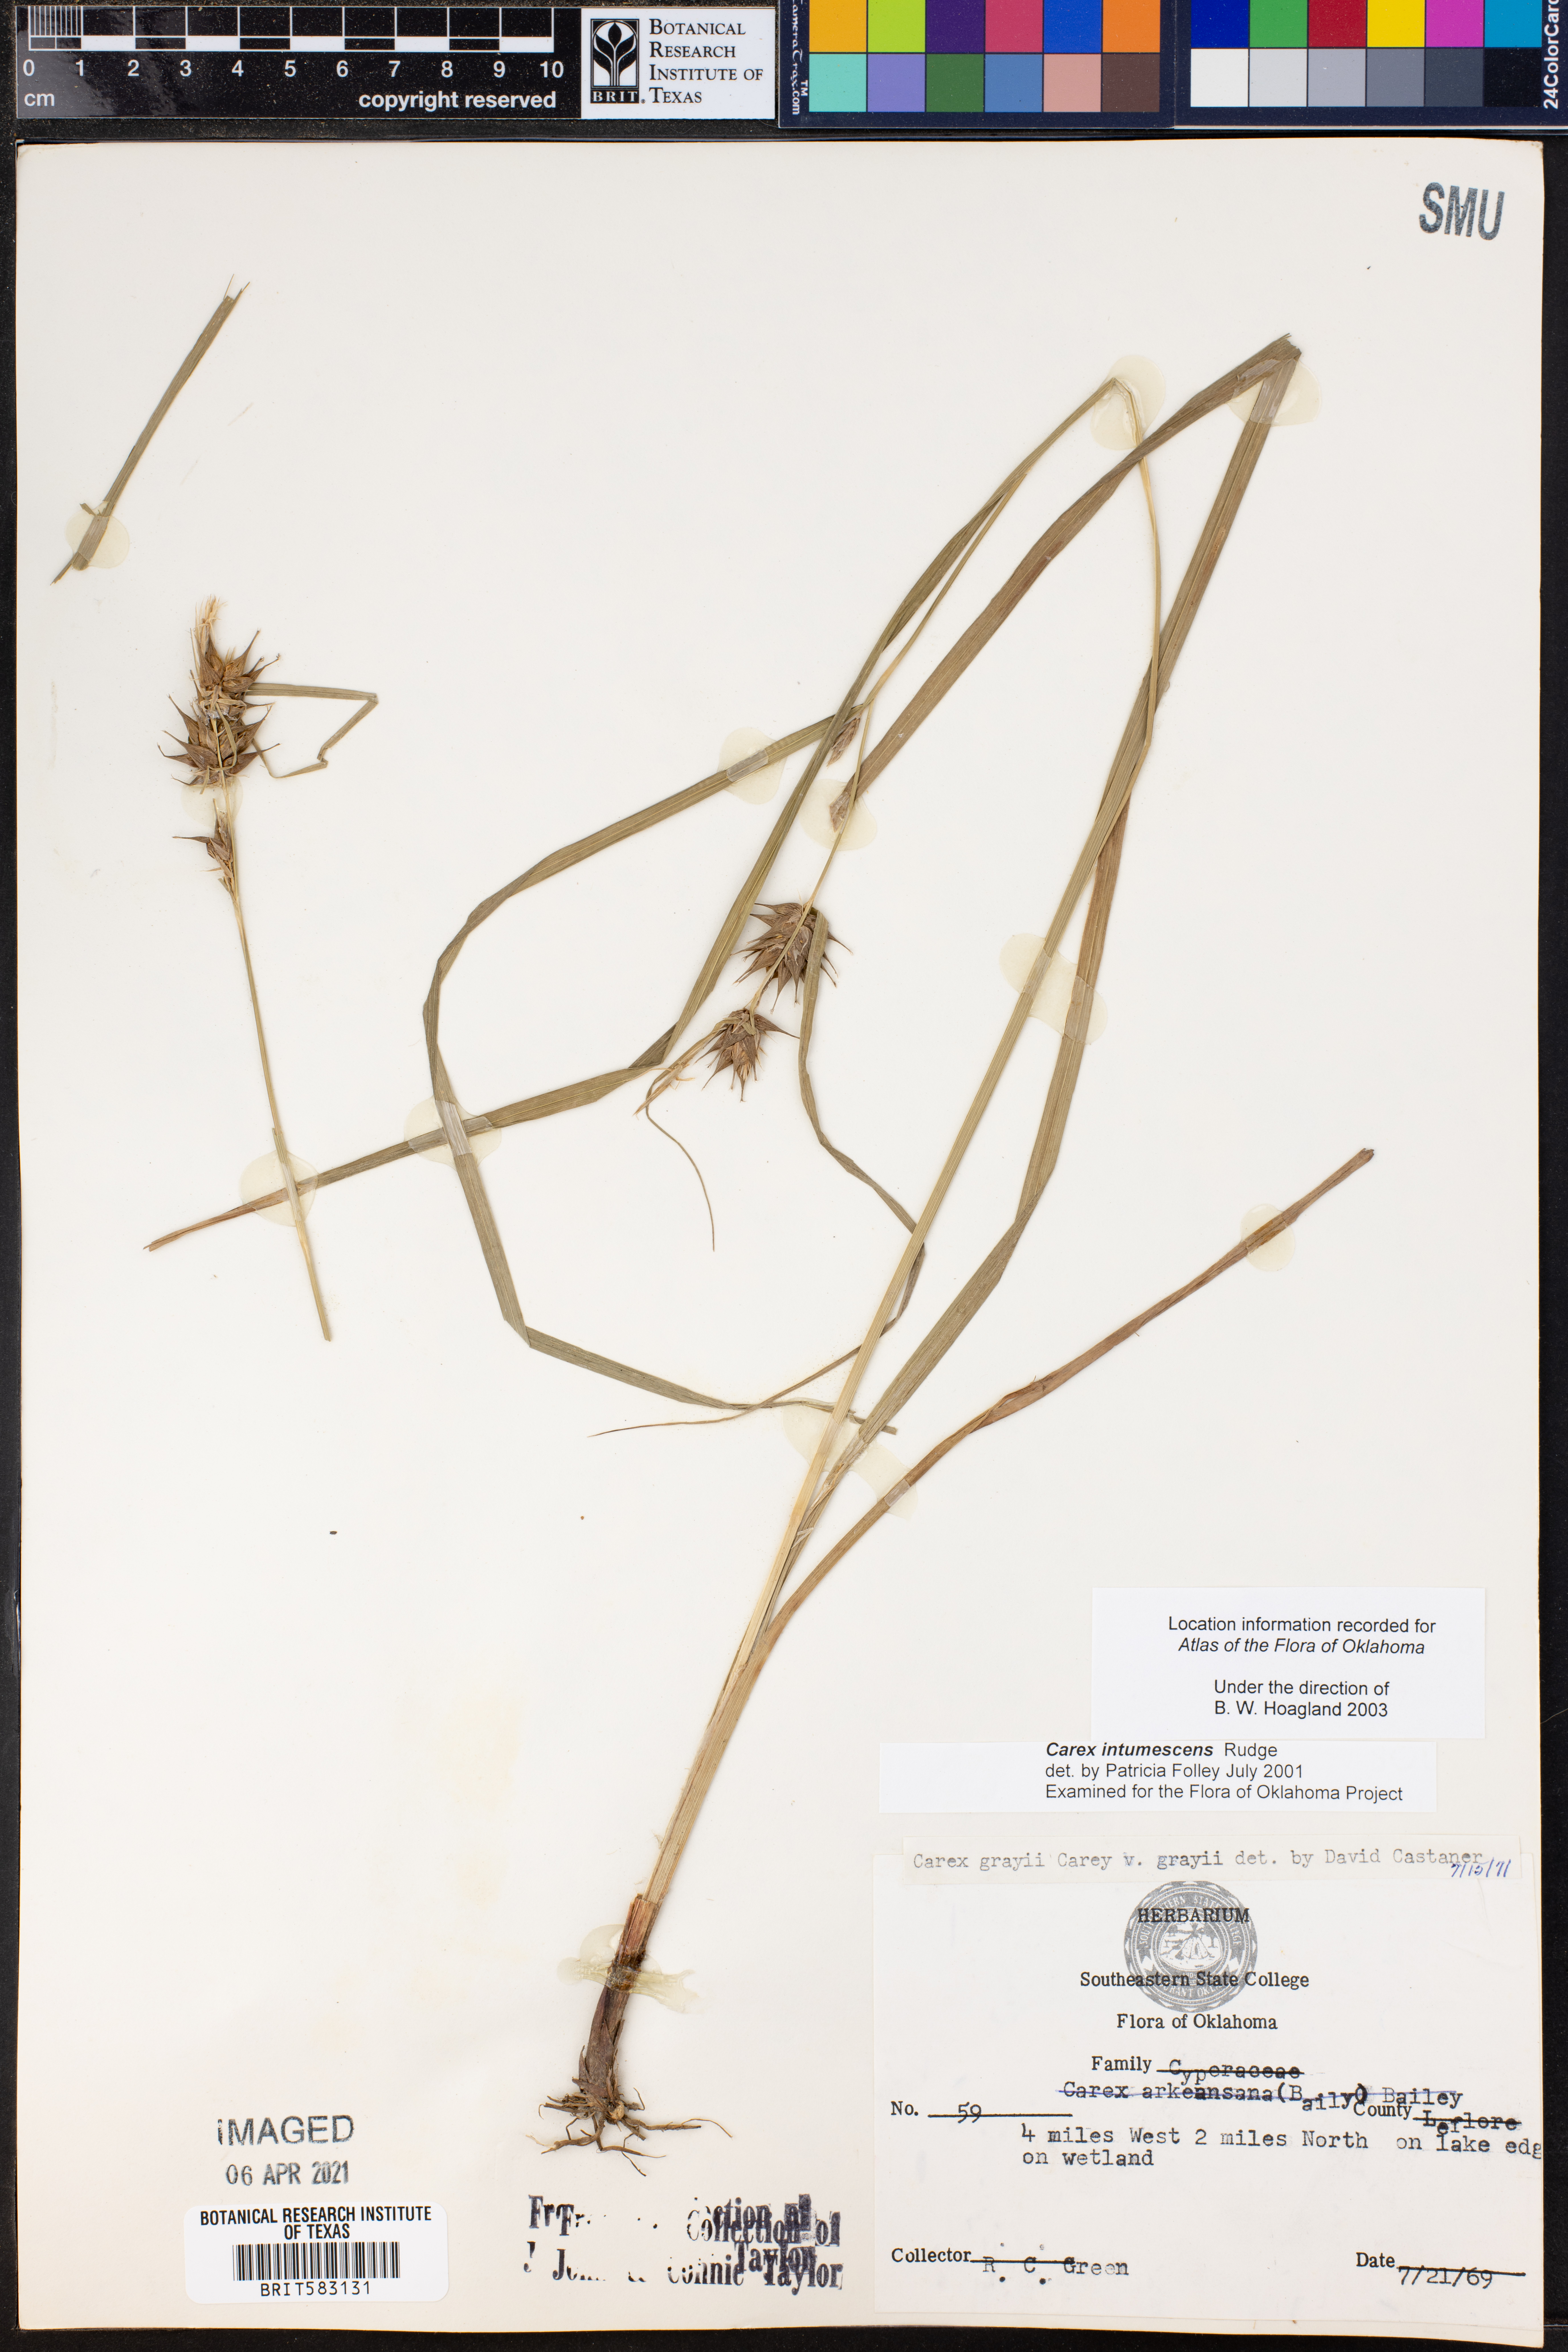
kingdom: Plantae
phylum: Tracheophyta
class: Liliopsida
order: Poales
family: Cyperaceae
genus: Carex
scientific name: Carex intumescens
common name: Greater bladder sedge
